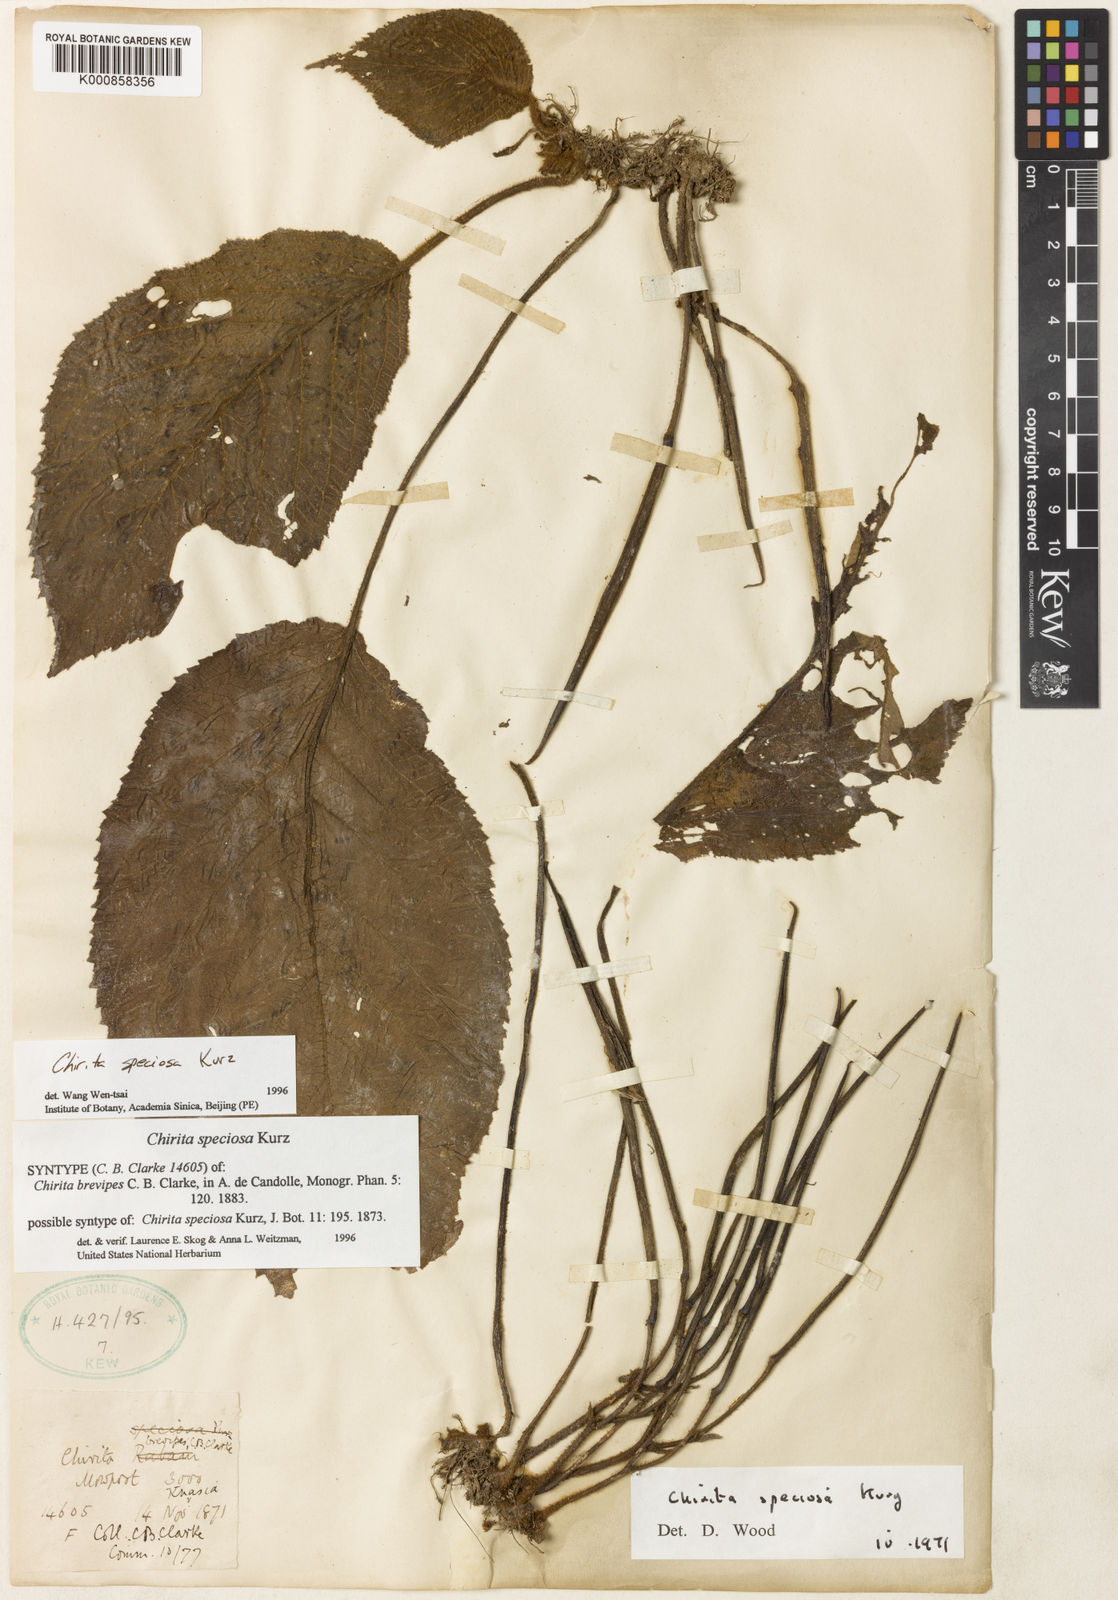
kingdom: Plantae
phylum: Tracheophyta
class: Magnoliopsida
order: Lamiales
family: Gesneriaceae
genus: Henckelia
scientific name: Henckelia speciosa
